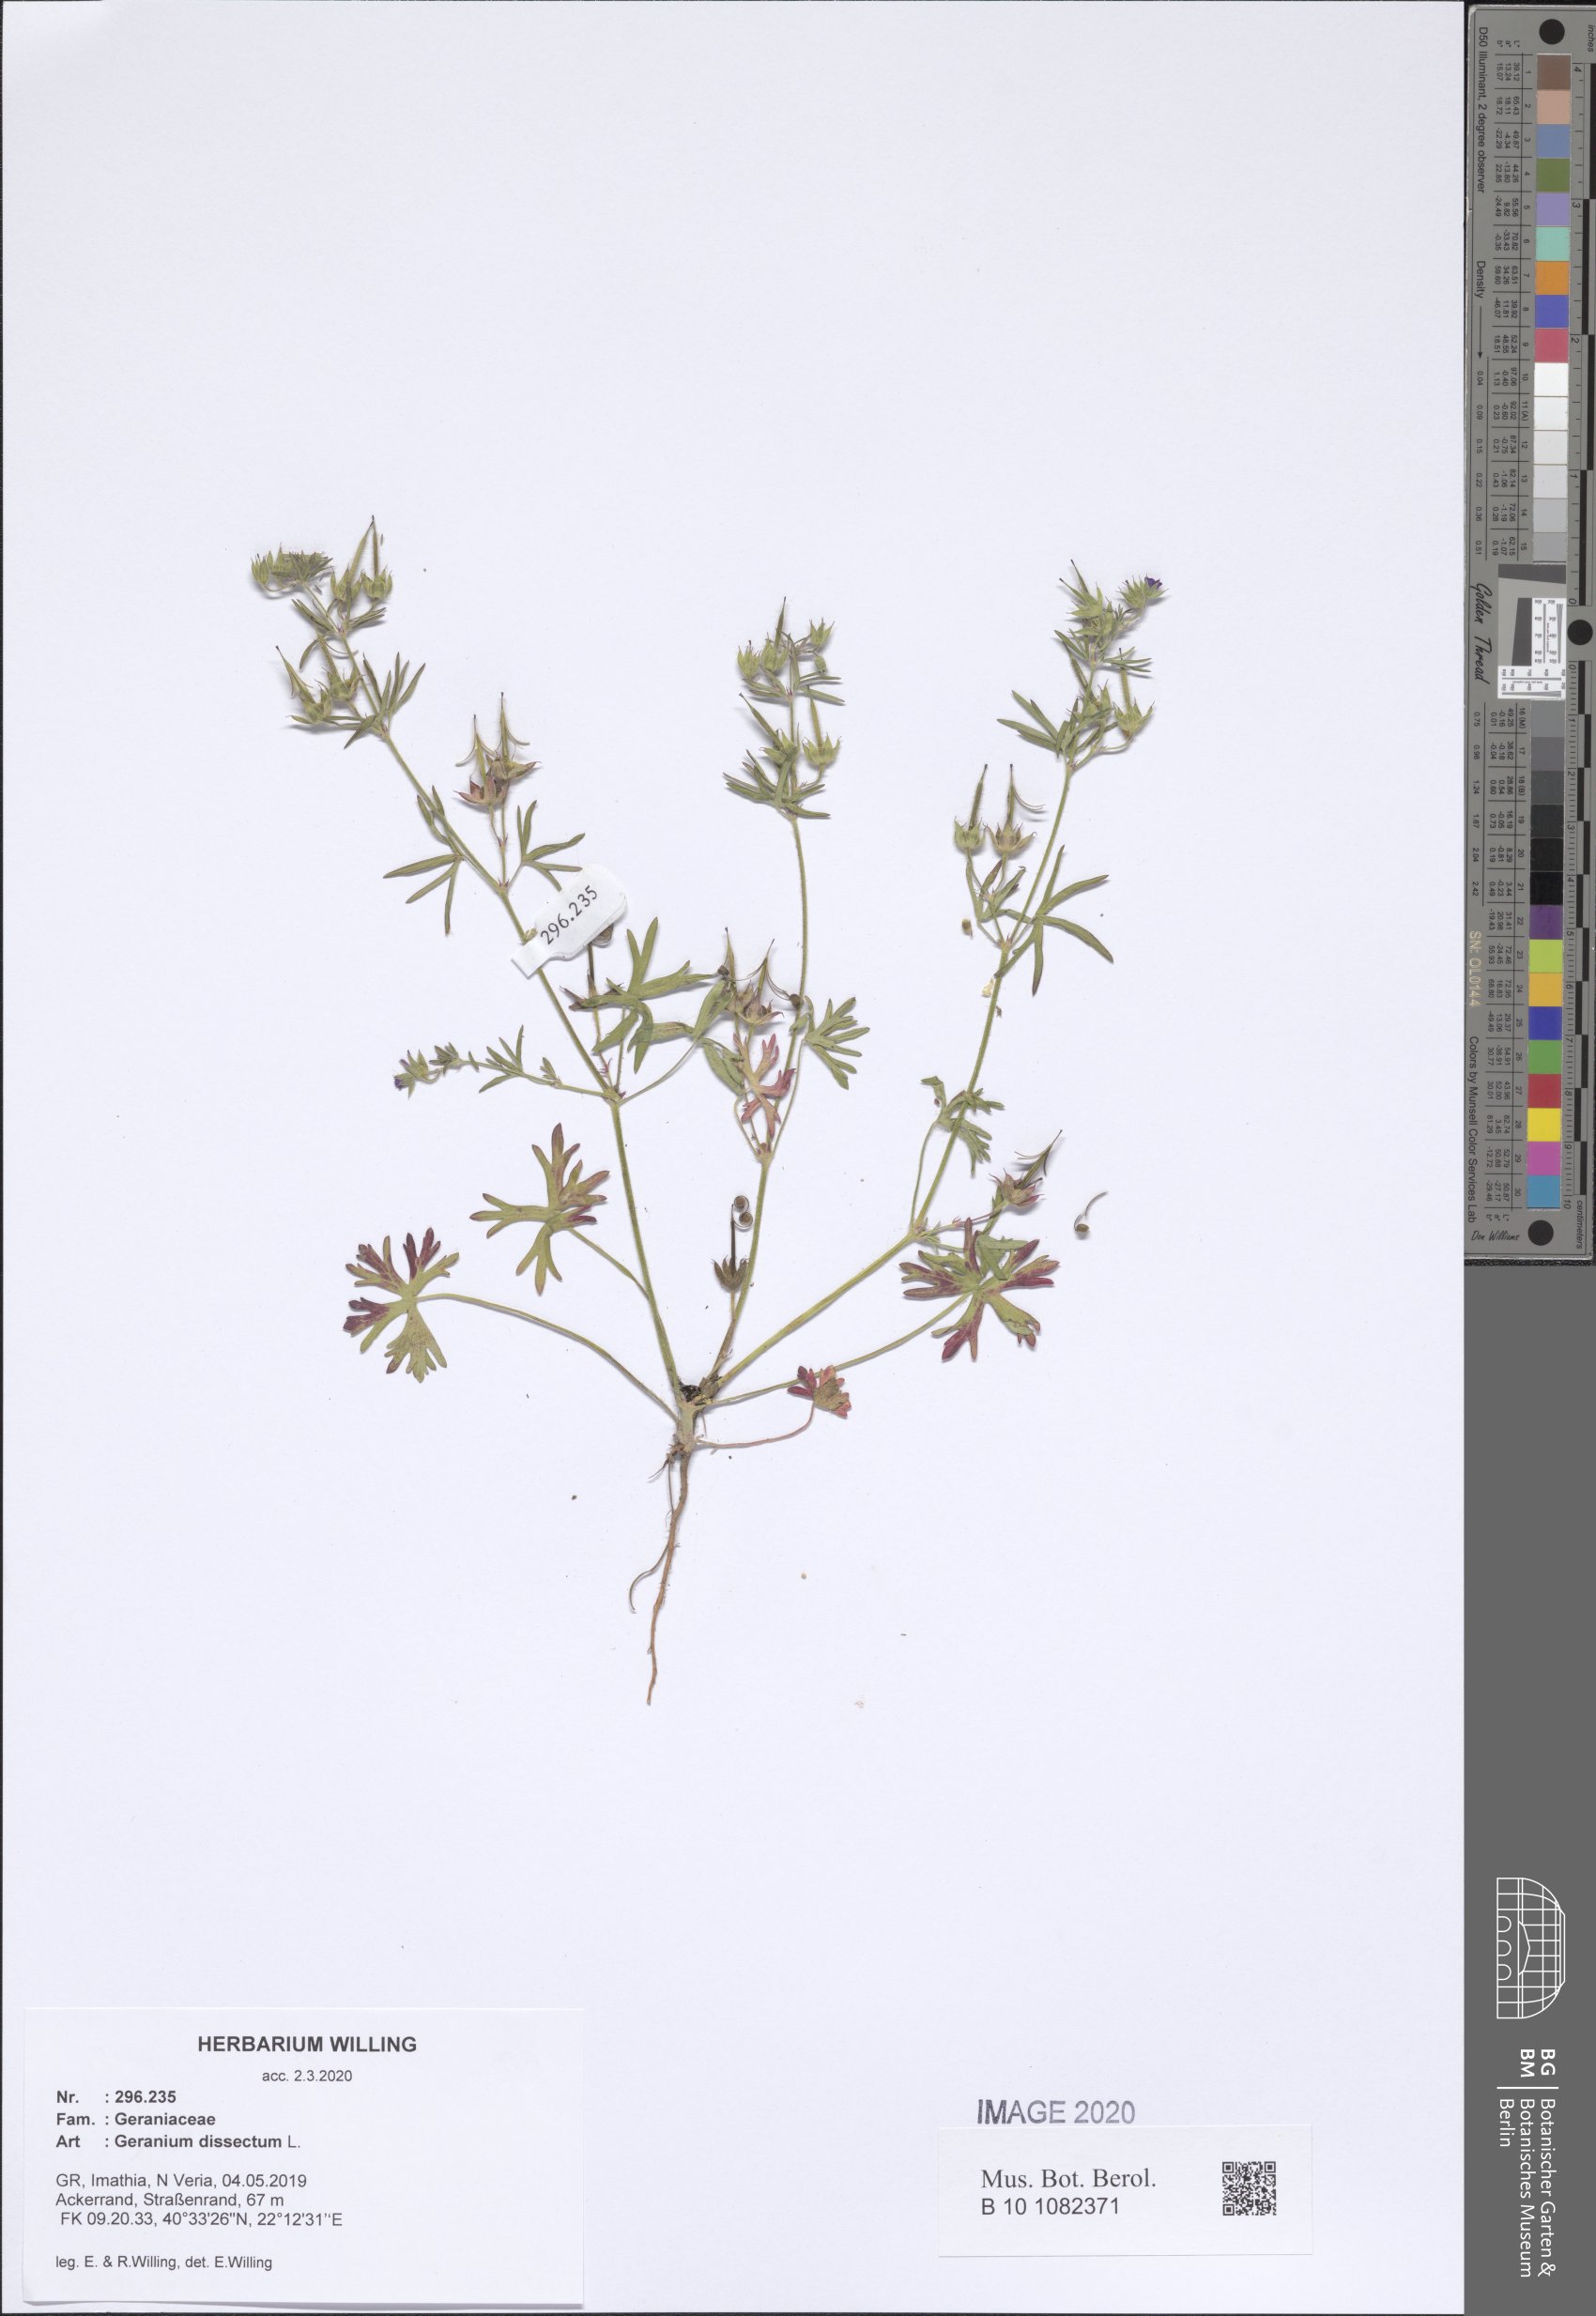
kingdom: Plantae
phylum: Tracheophyta
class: Magnoliopsida
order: Geraniales
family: Geraniaceae
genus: Geranium
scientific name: Geranium dissectum
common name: Cut-leaved crane's-bill
